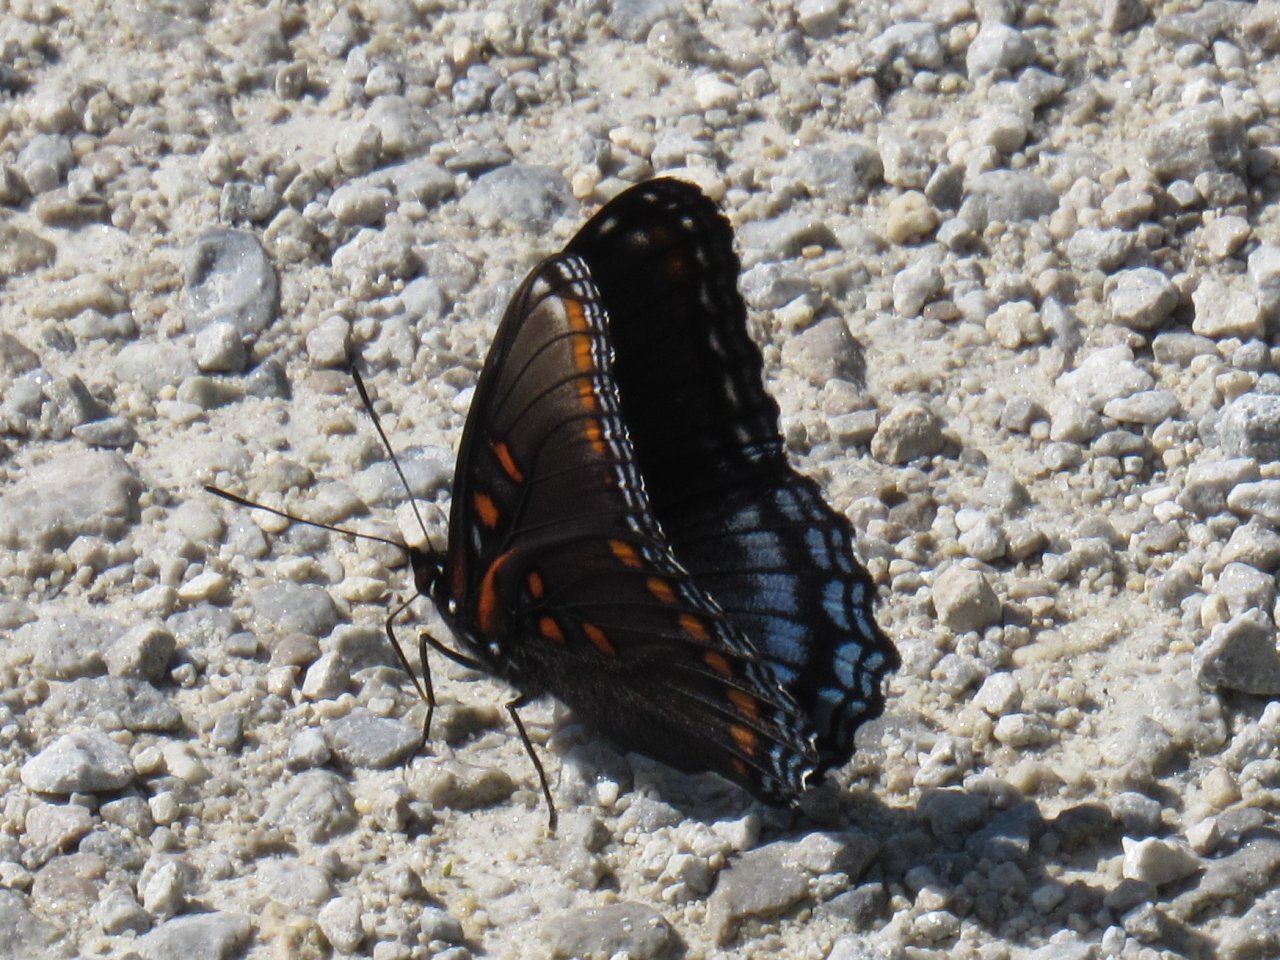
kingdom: Animalia
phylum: Arthropoda
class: Insecta
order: Lepidoptera
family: Nymphalidae
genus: Limenitis
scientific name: Limenitis astyanax
